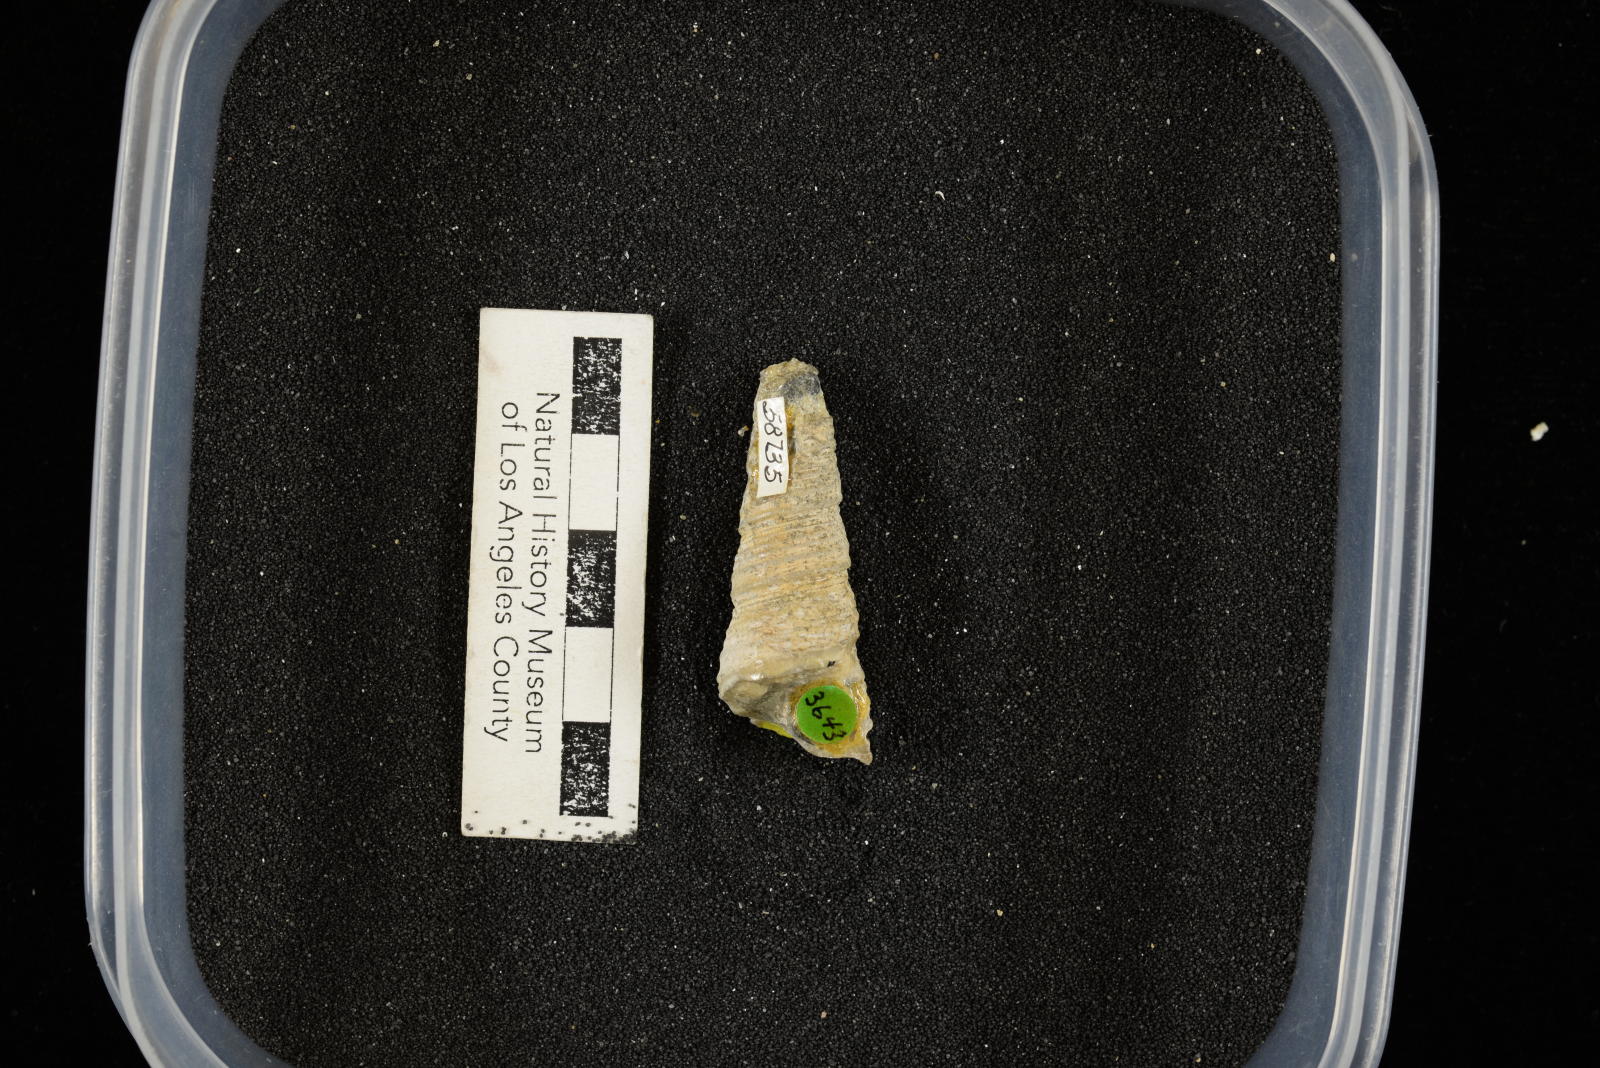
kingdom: Animalia
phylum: Mollusca
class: Gastropoda
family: Turritellidae
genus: Turritella
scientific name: Turritella chicoensis
